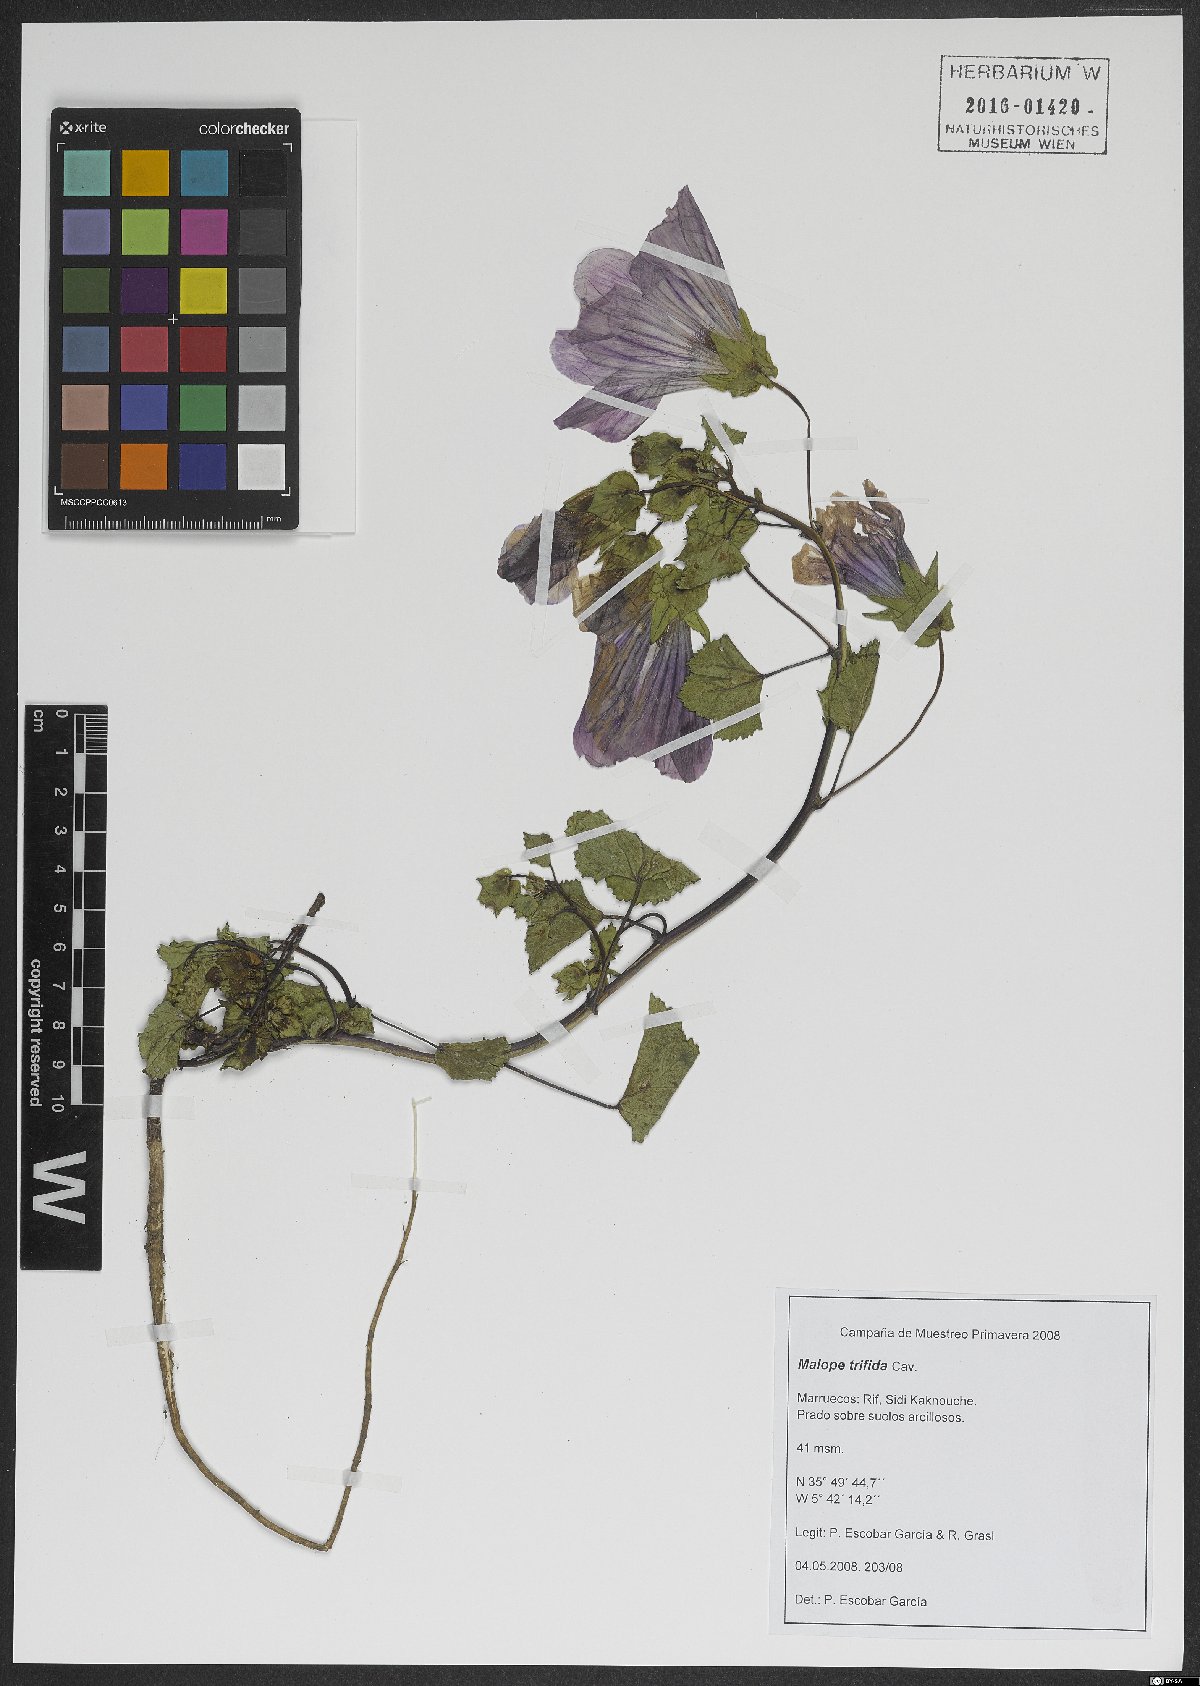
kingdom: Plantae
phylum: Tracheophyta
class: Magnoliopsida
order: Malvales
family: Malvaceae
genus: Malope
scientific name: Malope trifida
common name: Mallow-wort
